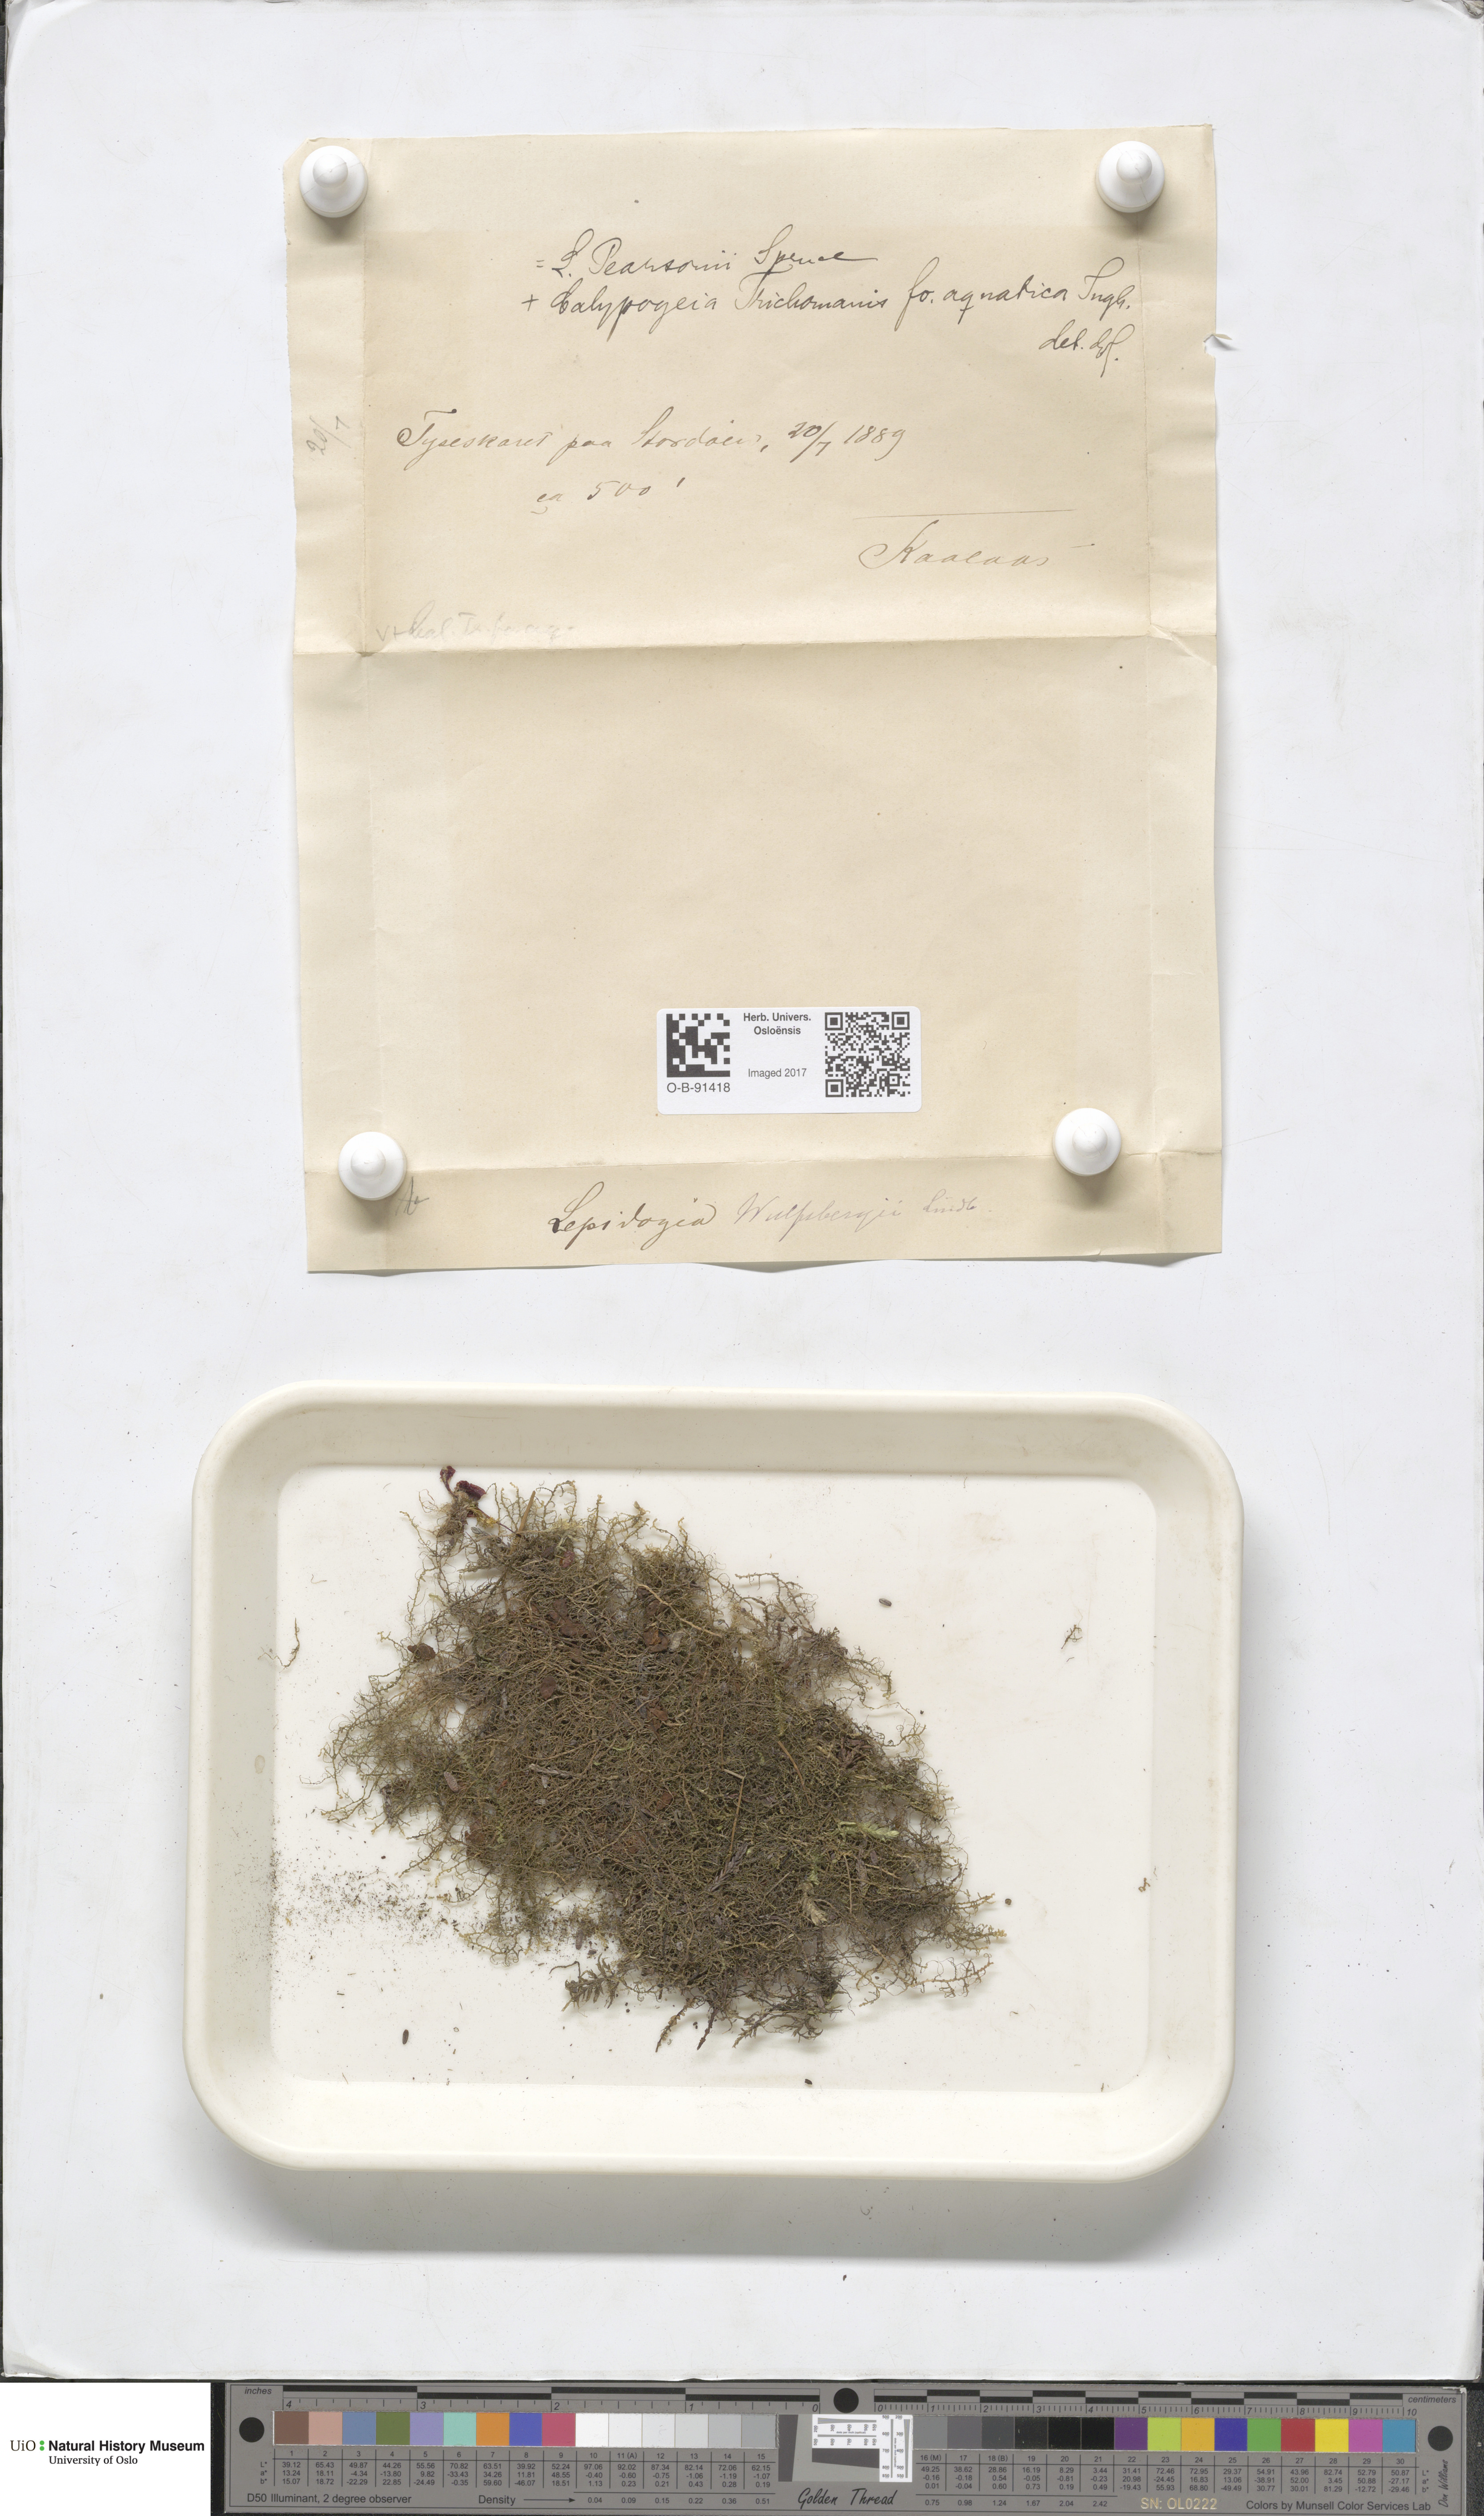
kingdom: Plantae
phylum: Marchantiophyta
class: Jungermanniopsida
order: Jungermanniales
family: Lepidoziaceae
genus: Lepidozia
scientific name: Lepidozia pearsonii
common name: Pearson's fingerwort
